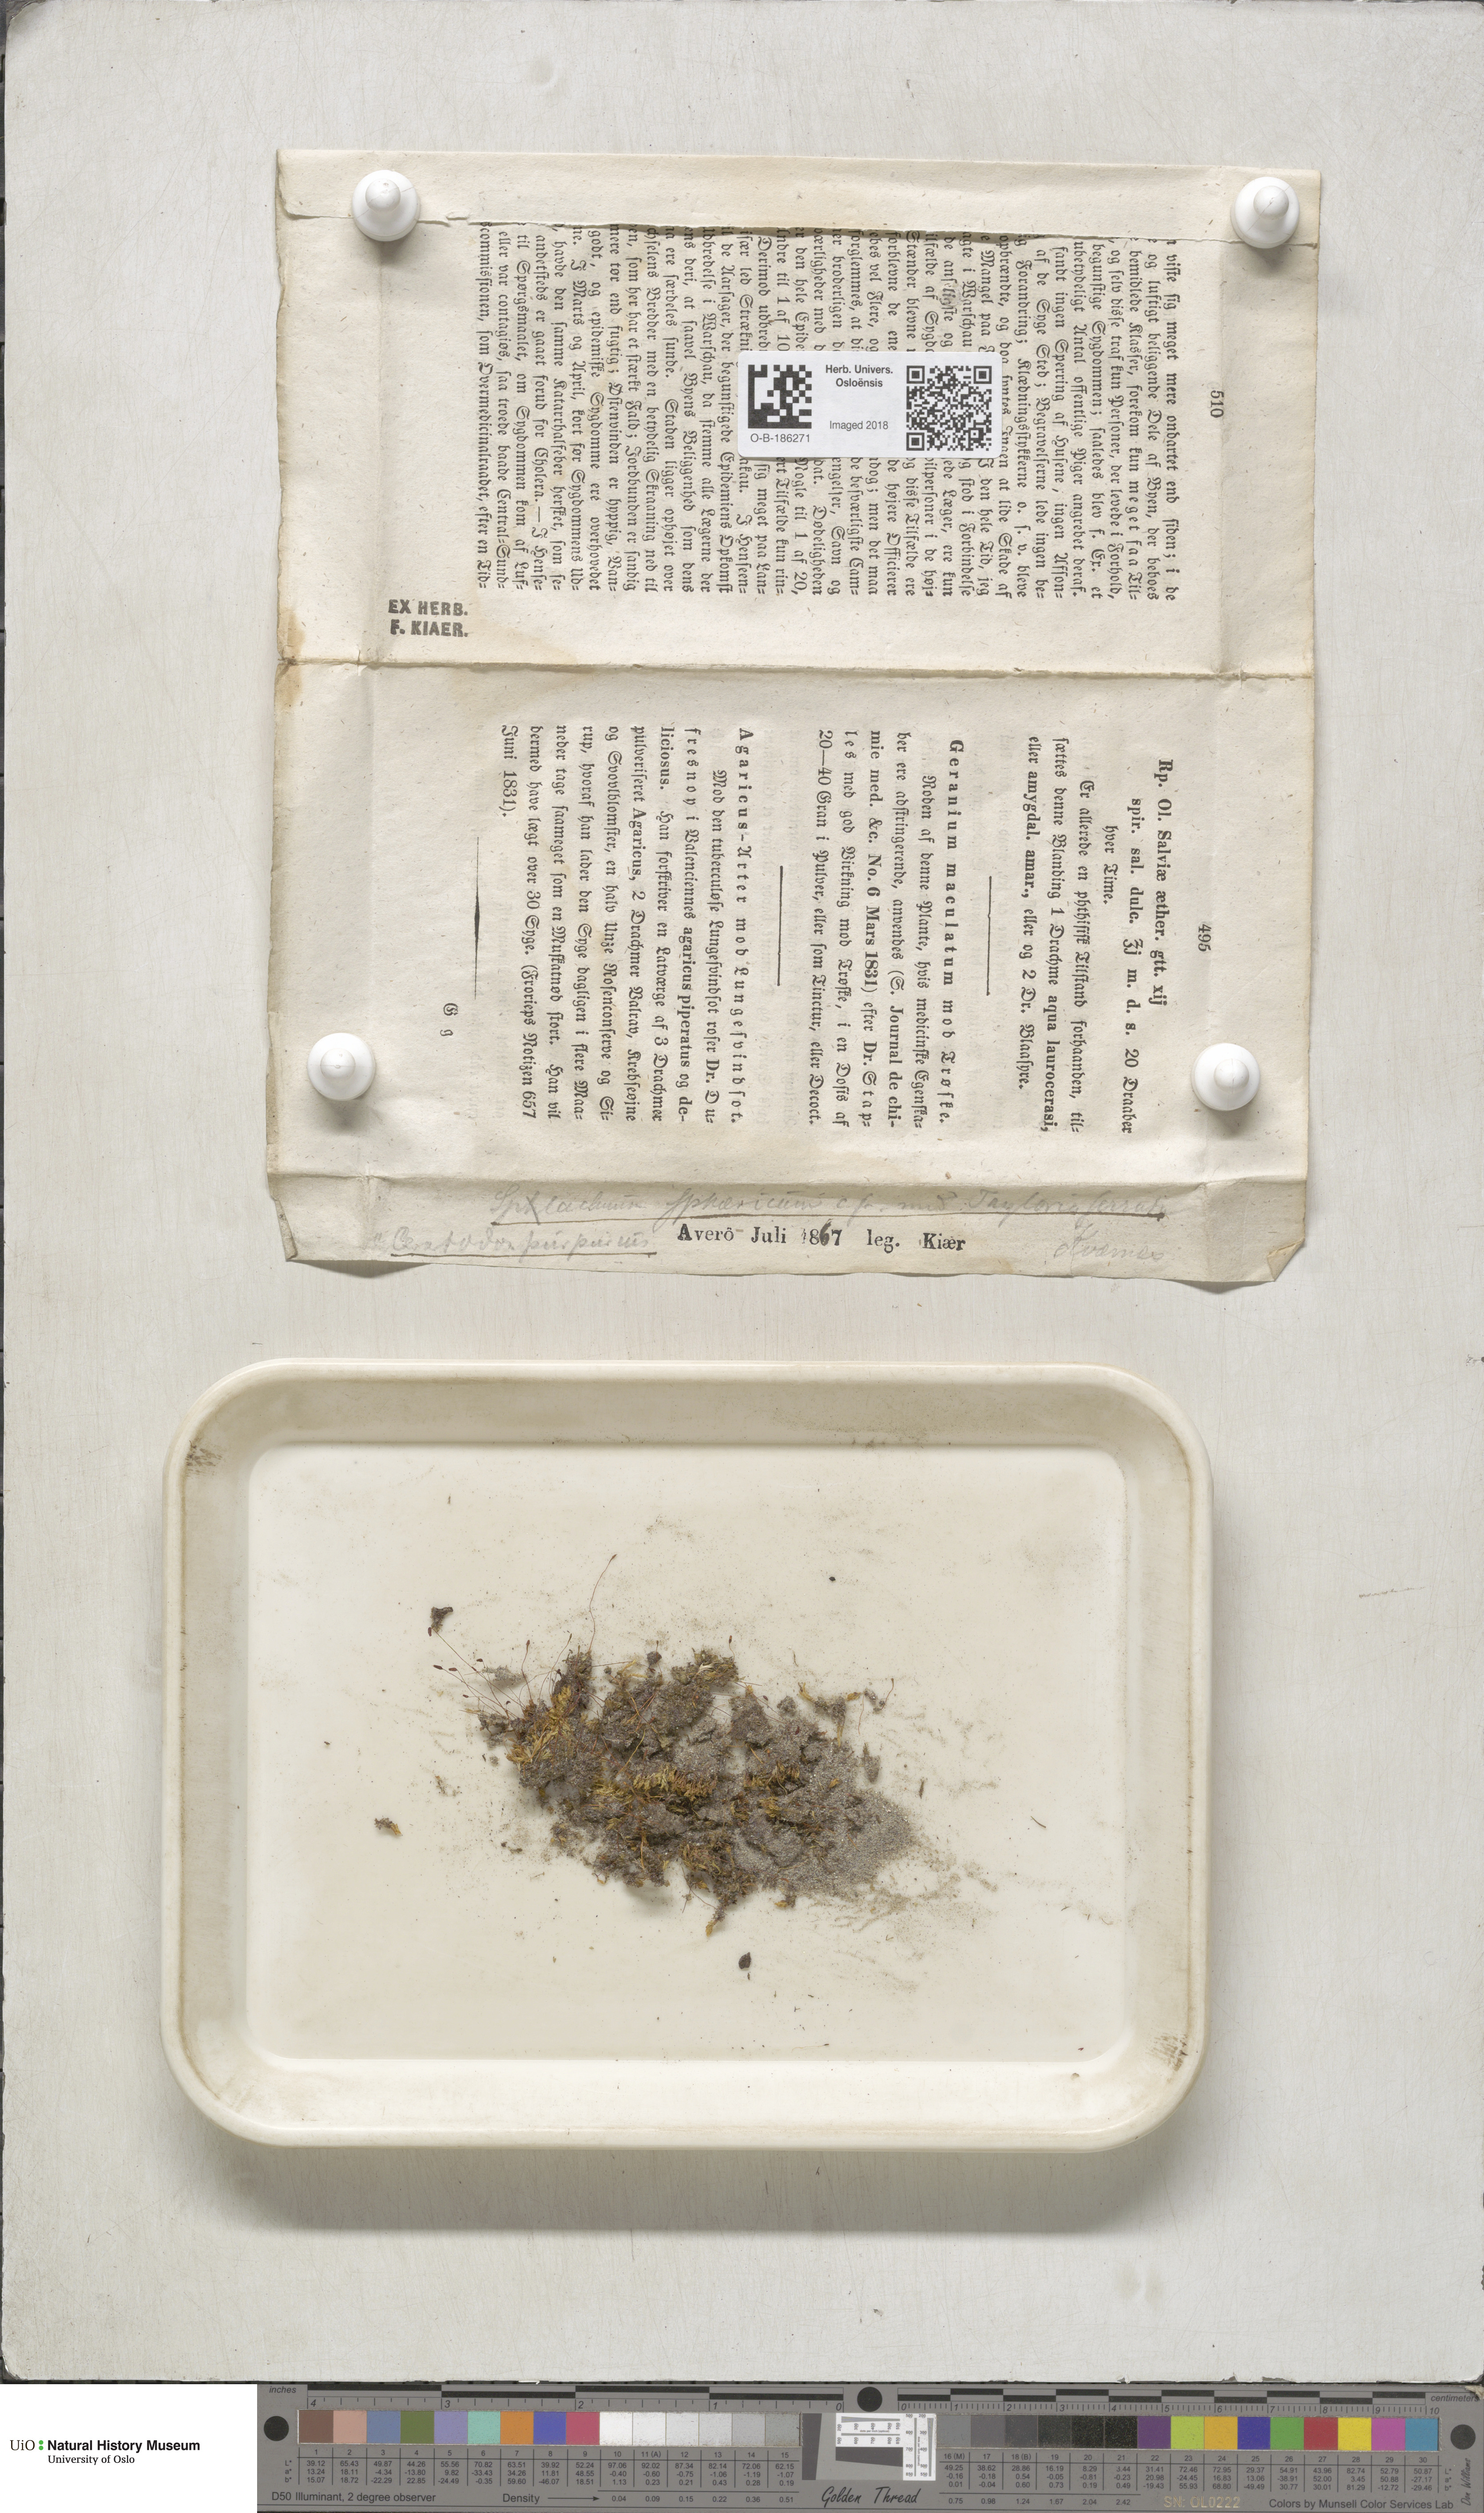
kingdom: Plantae
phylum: Bryophyta
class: Bryopsida
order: Splachnales
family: Splachnaceae
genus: Splachnum
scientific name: Splachnum sphaericum
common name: Round-fruited dung moss
